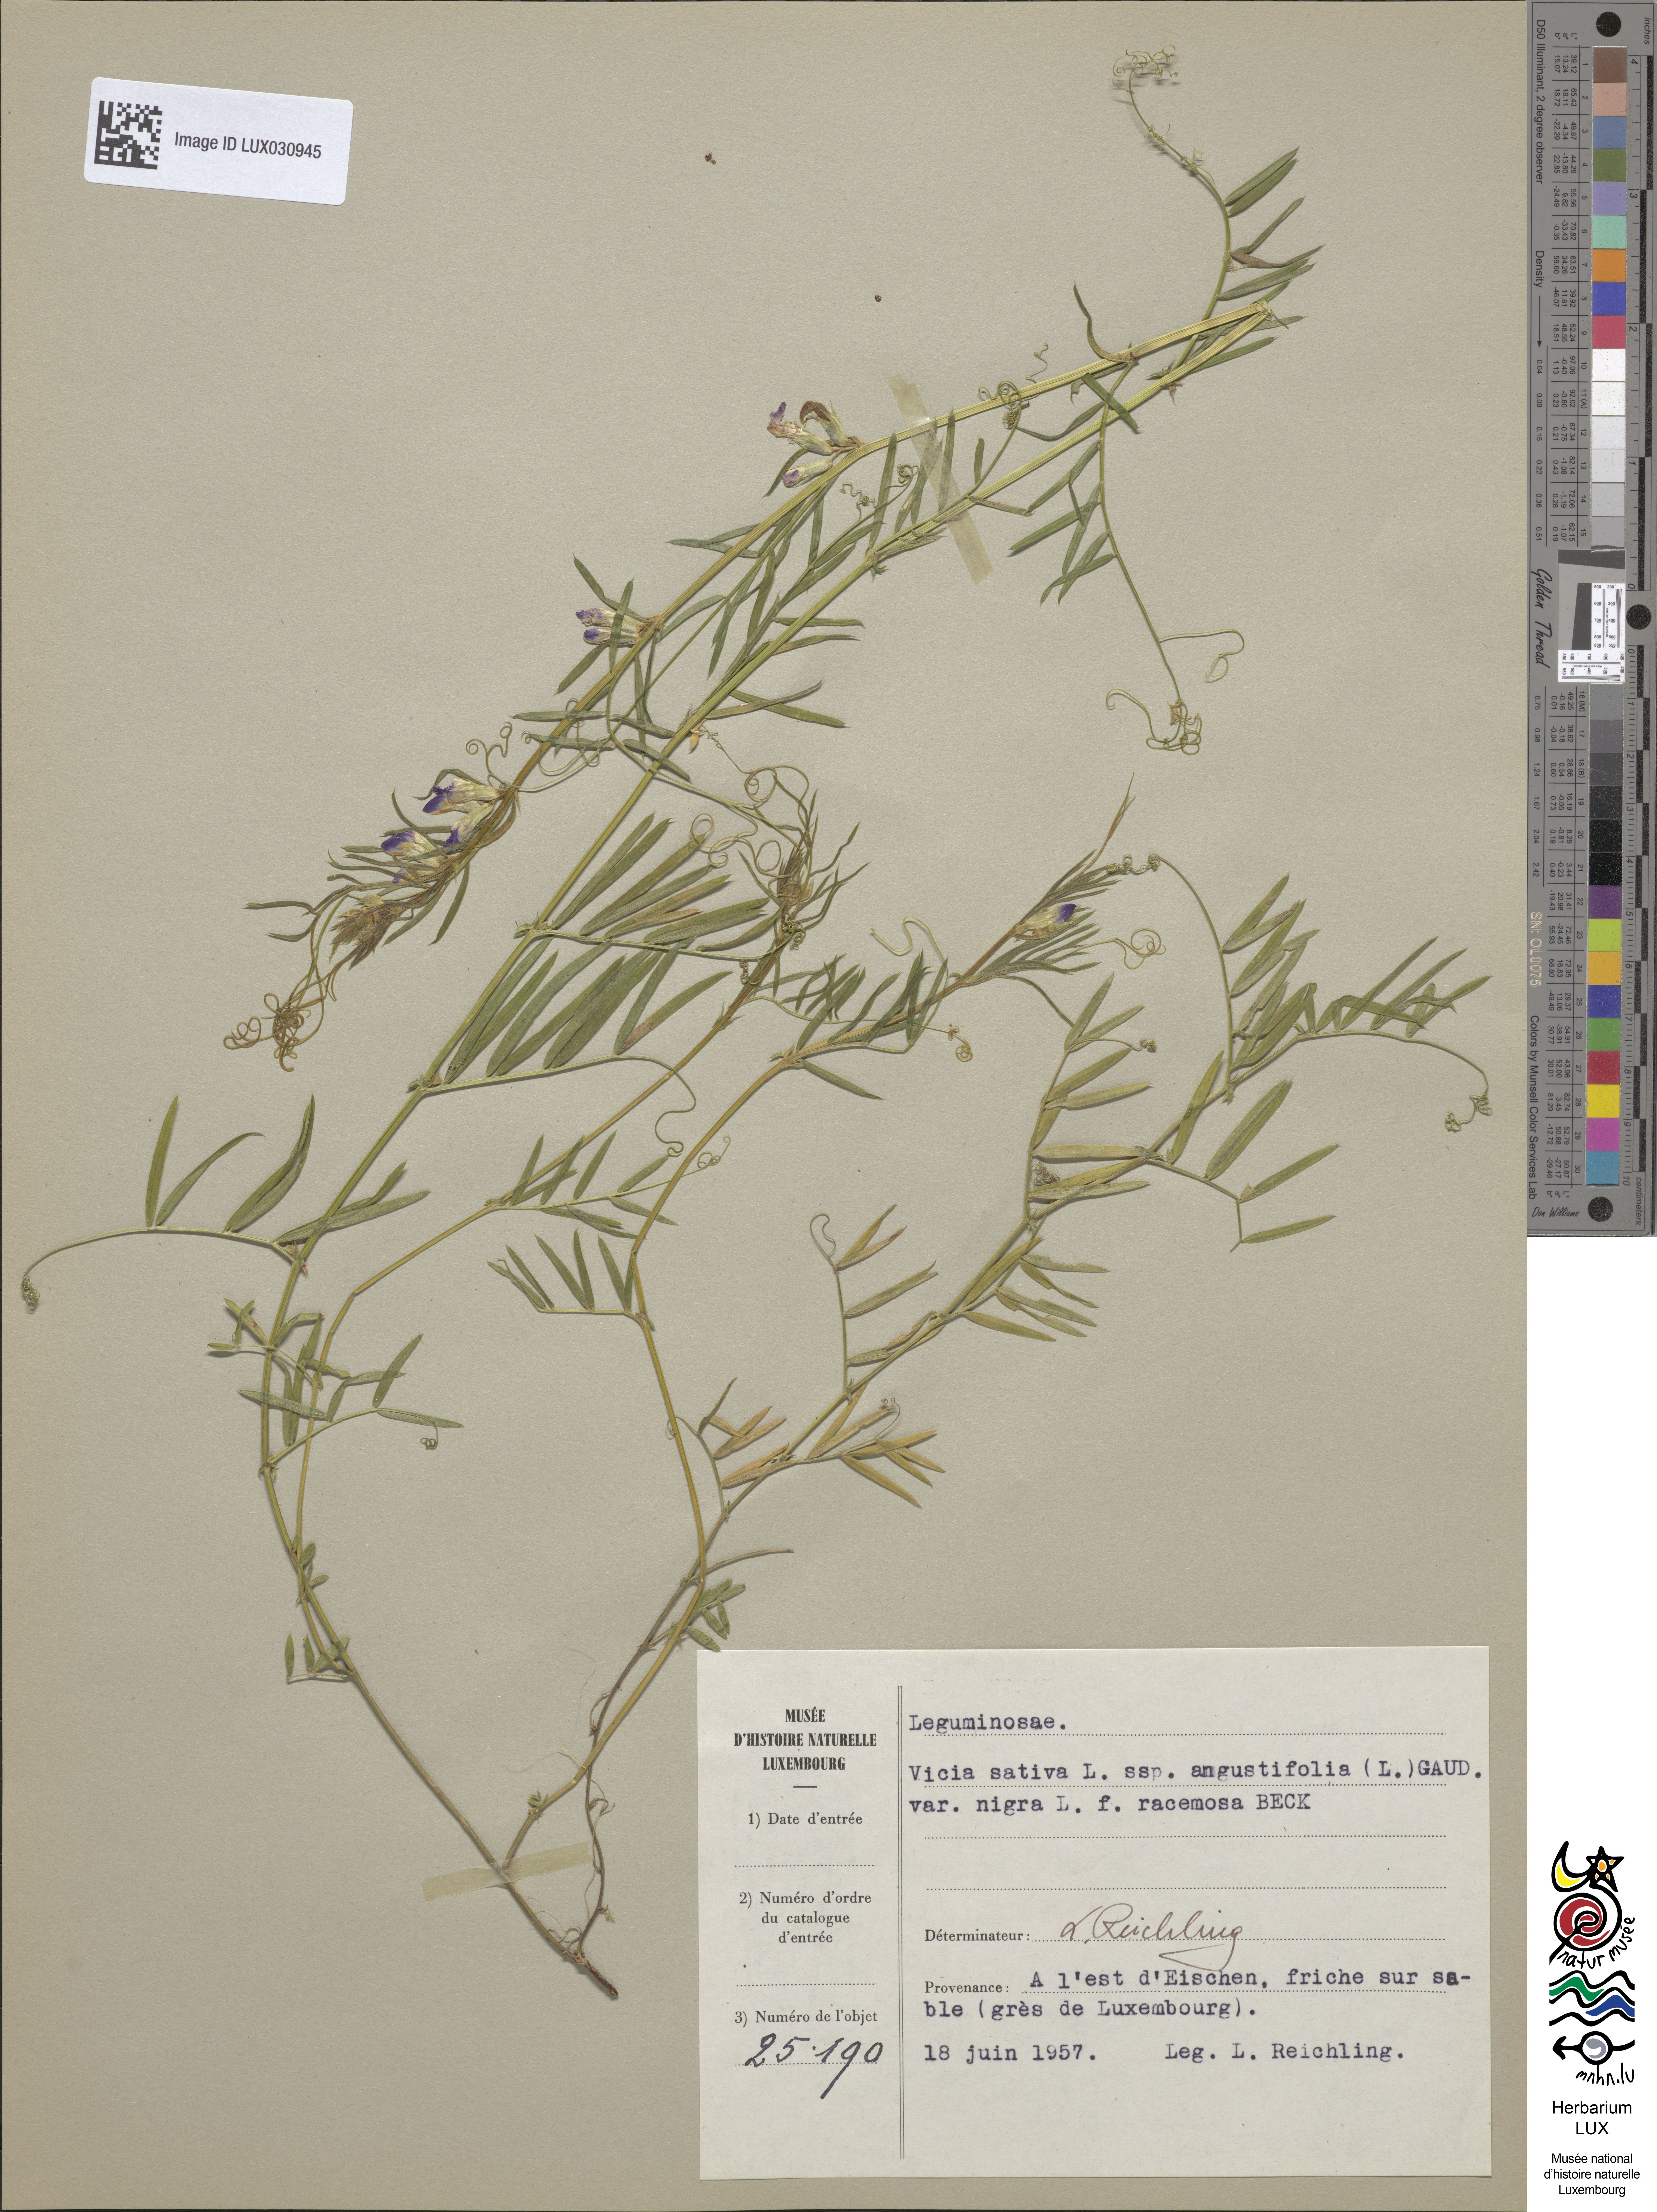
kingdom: Plantae
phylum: Tracheophyta
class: Magnoliopsida
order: Fabales
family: Fabaceae
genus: Vicia
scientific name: Vicia sativa
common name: Garden vetch
